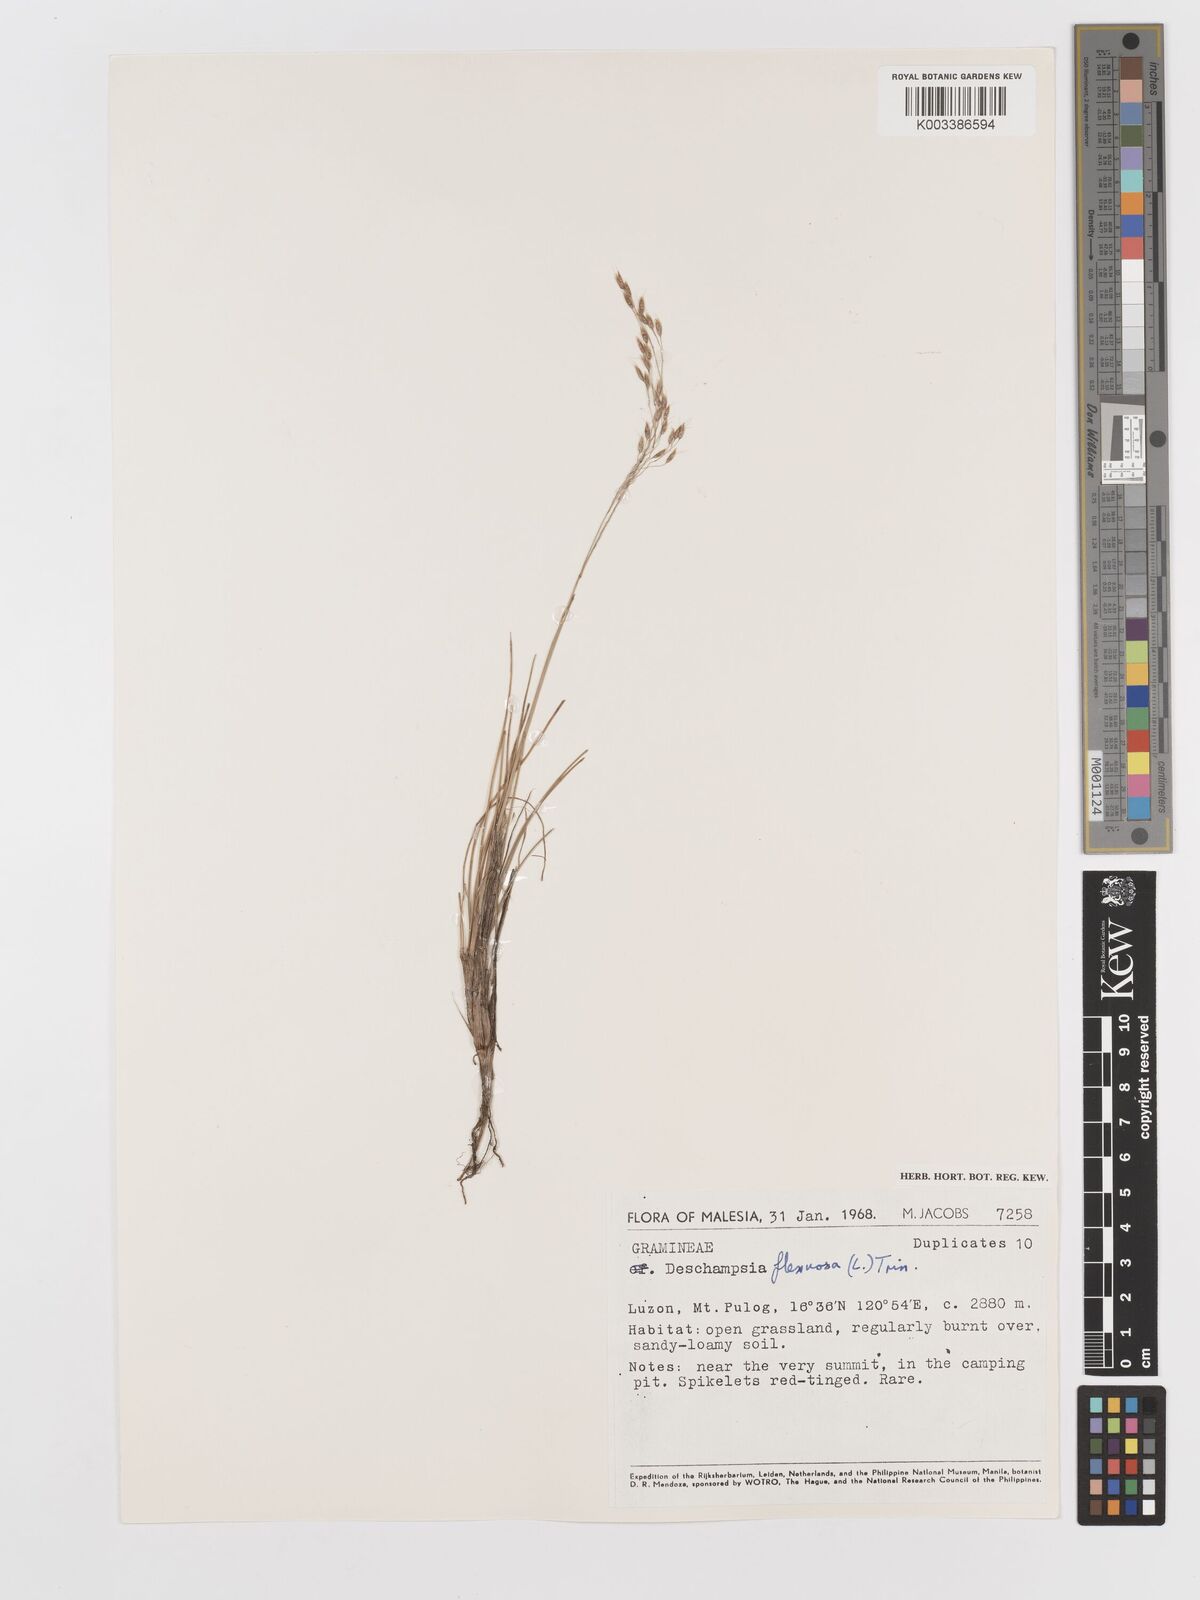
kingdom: Plantae
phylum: Tracheophyta
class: Liliopsida
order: Poales
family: Poaceae
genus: Avenella
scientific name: Avenella flexuosa
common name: Wavy hairgrass
